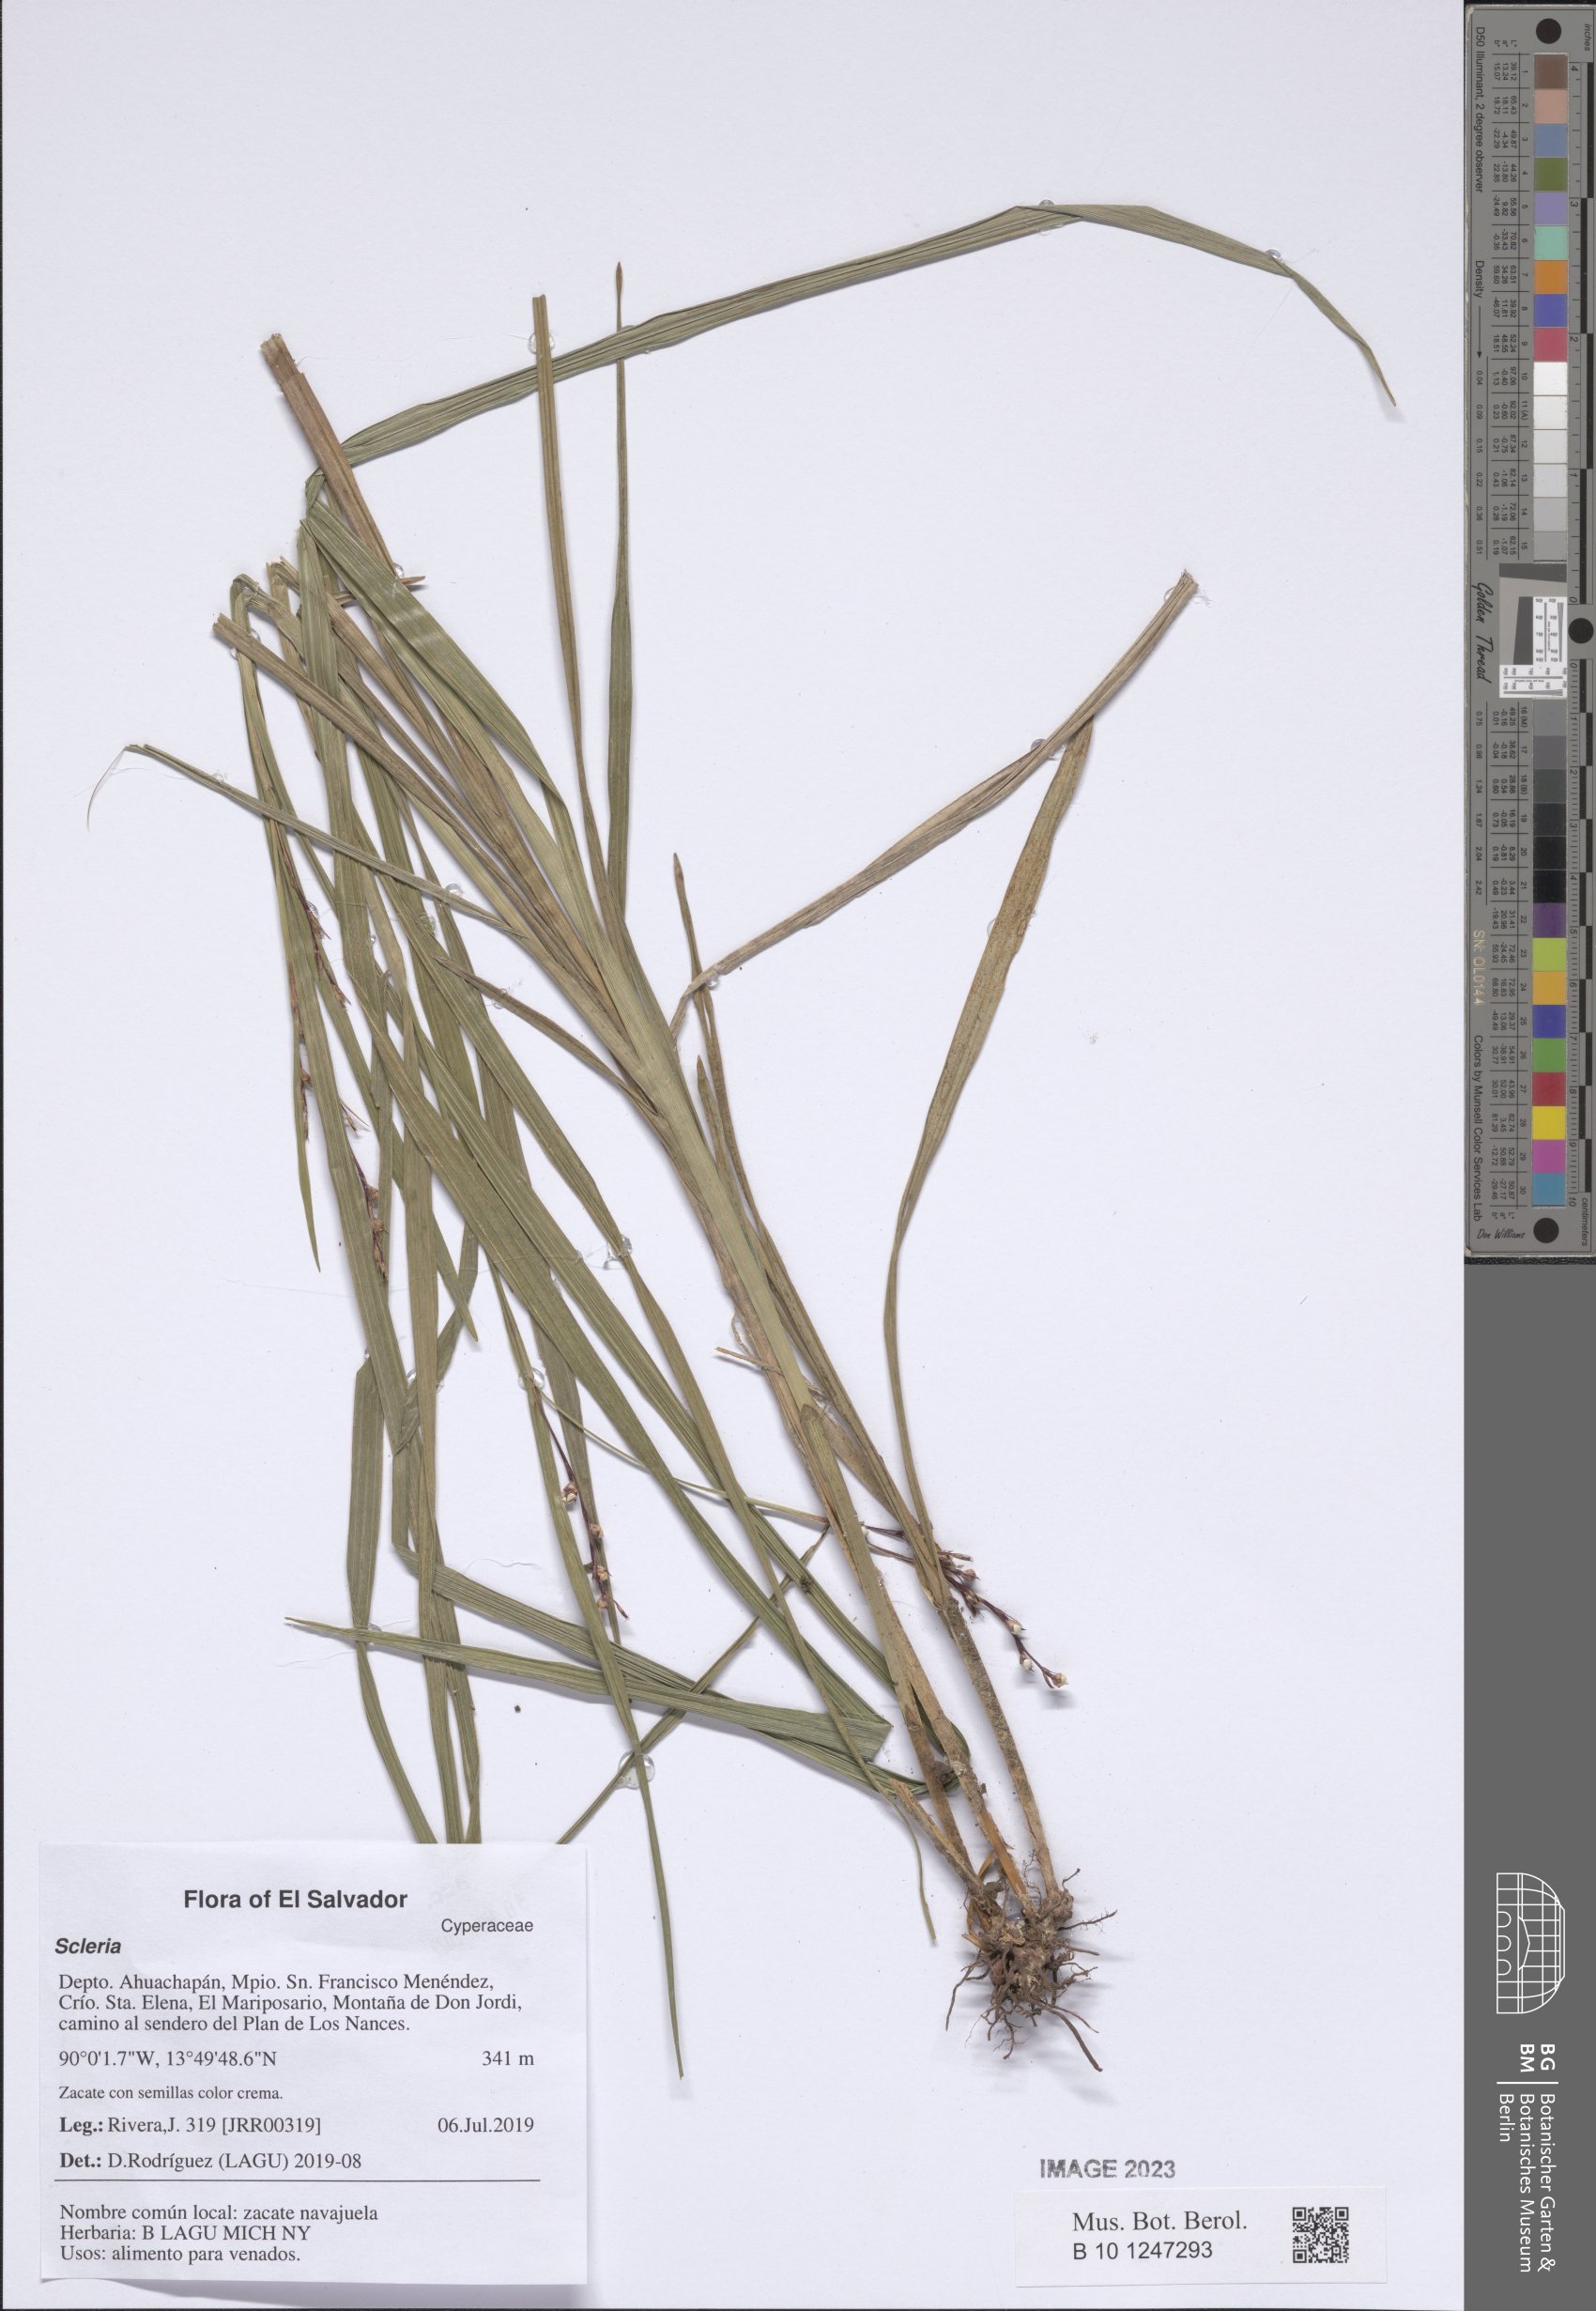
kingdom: Plantae
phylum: Tracheophyta
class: Liliopsida
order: Poales
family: Cyperaceae
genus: Scleria
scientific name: Scleria
